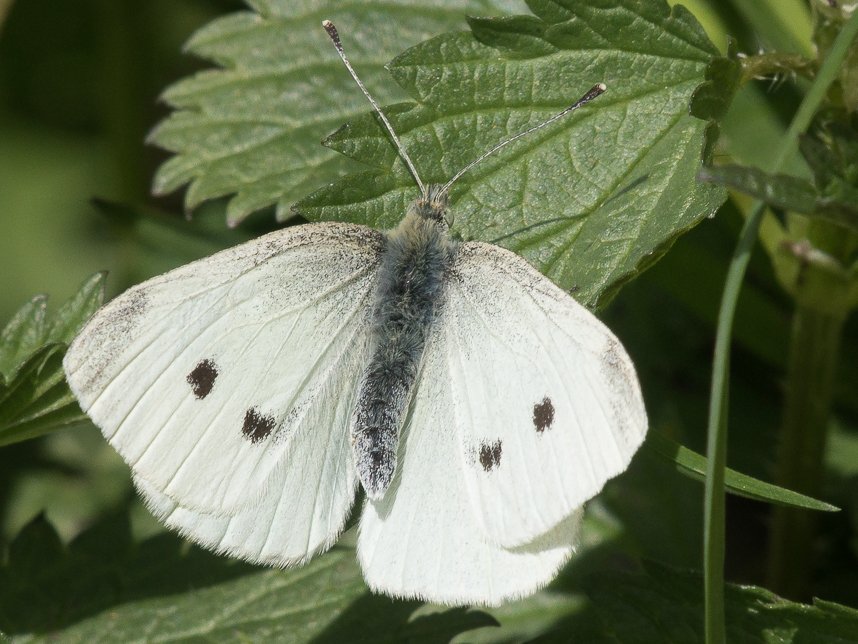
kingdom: Animalia
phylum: Arthropoda
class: Insecta
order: Lepidoptera
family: Pieridae
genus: Pieris
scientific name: Pieris rapae
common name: Cabbage White
